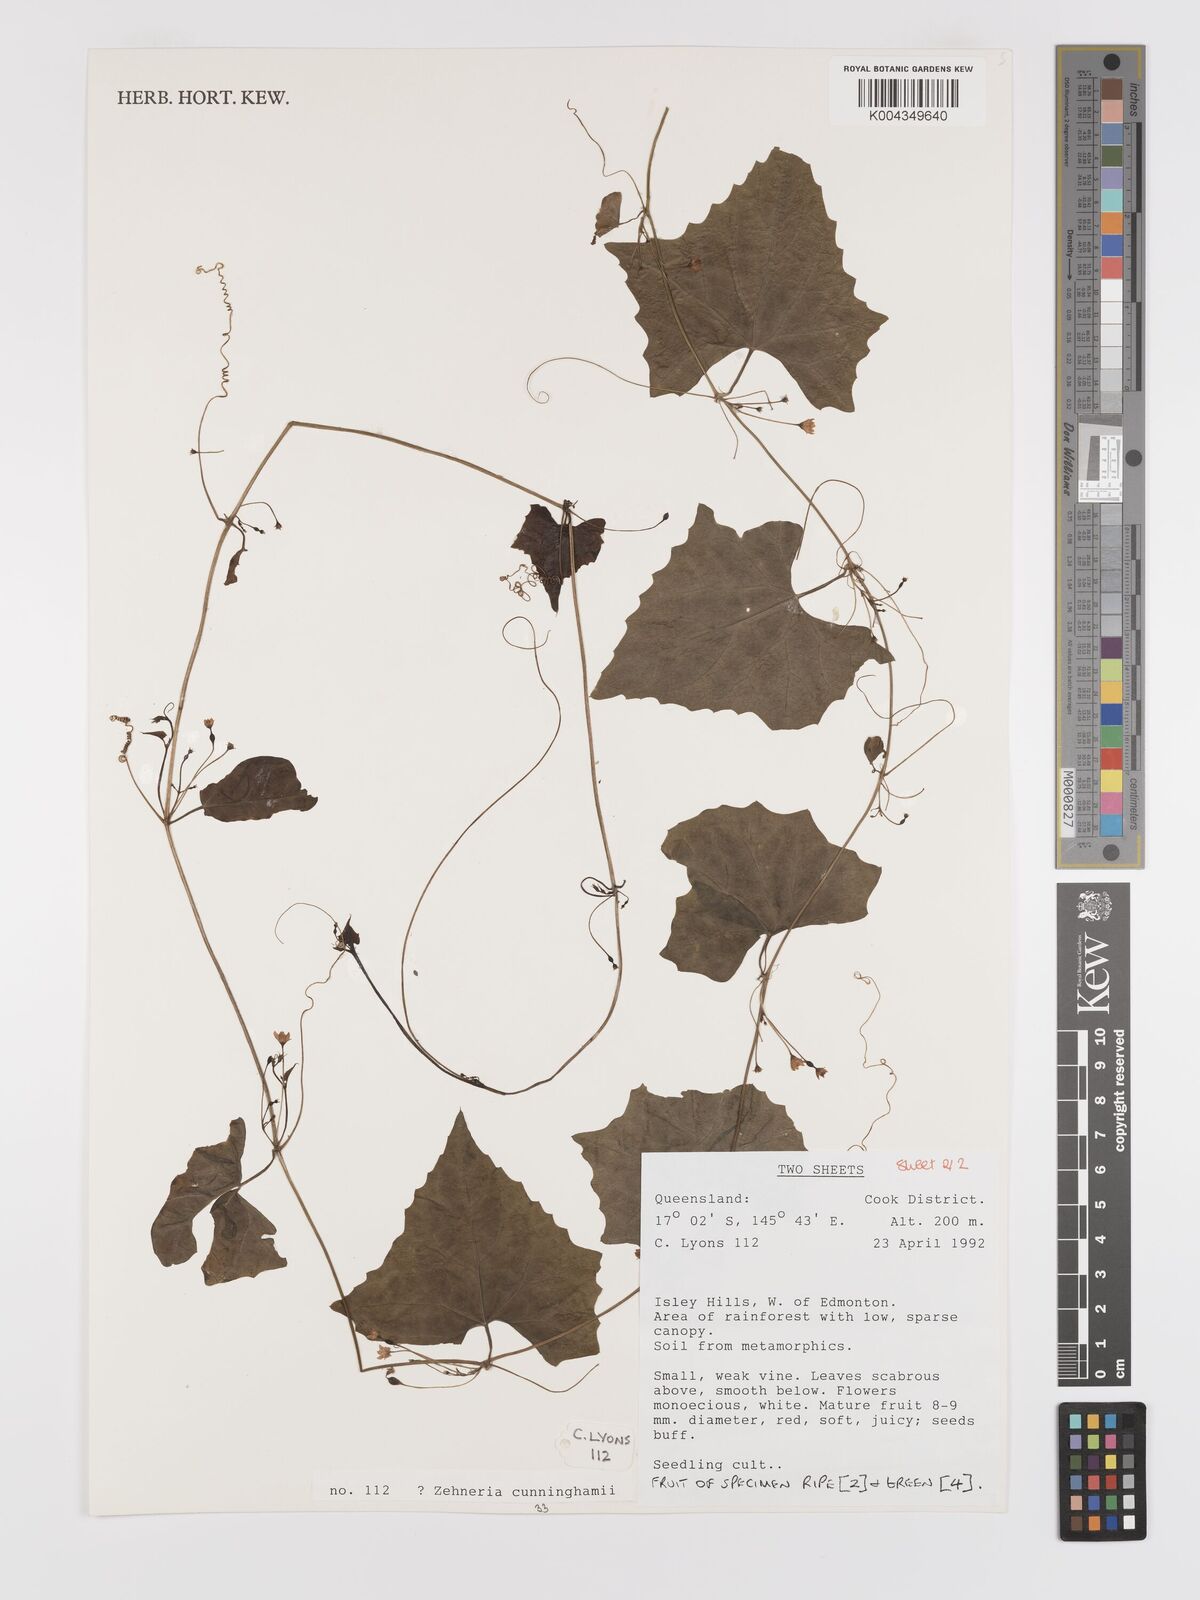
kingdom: Plantae
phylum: Tracheophyta
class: Magnoliopsida
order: Cucurbitales
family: Cucurbitaceae
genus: Zehneria
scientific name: Zehneria cunninghamii
